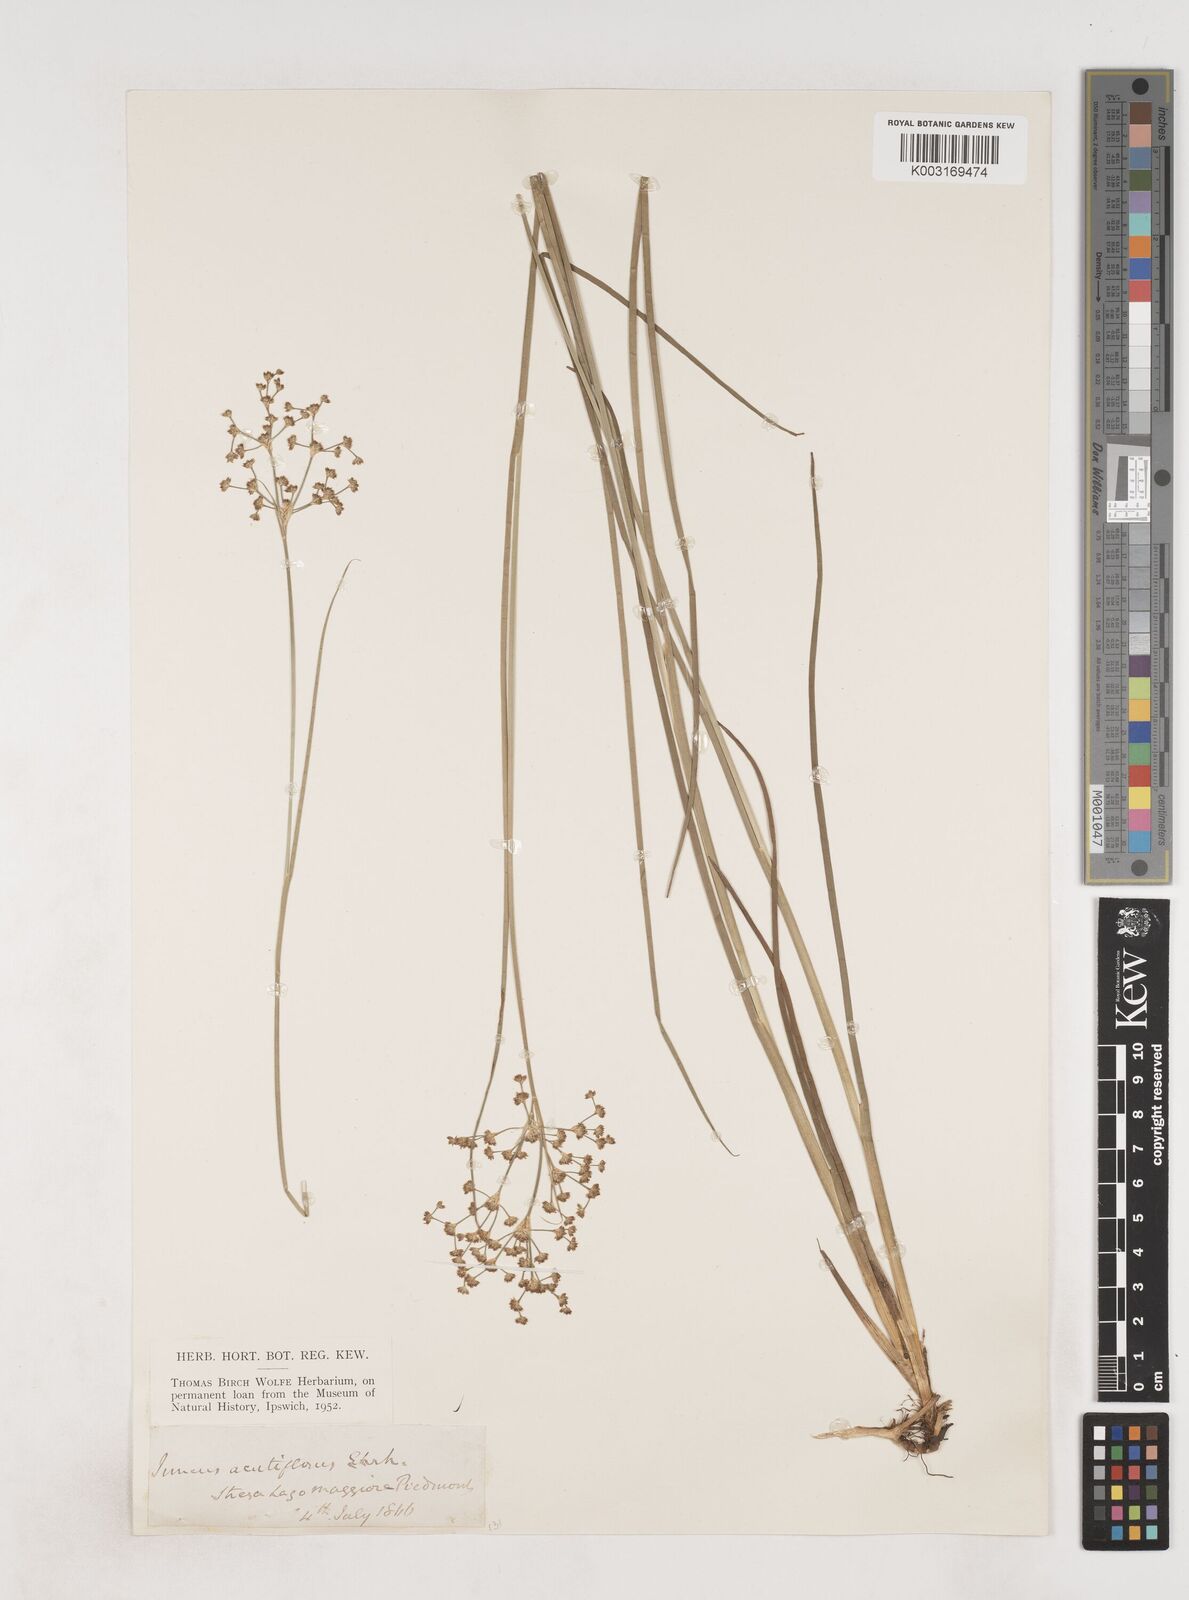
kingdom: Plantae
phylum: Tracheophyta
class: Liliopsida
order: Poales
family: Juncaceae
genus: Juncus
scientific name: Juncus acutiflorus
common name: Sharp-flowered rush
